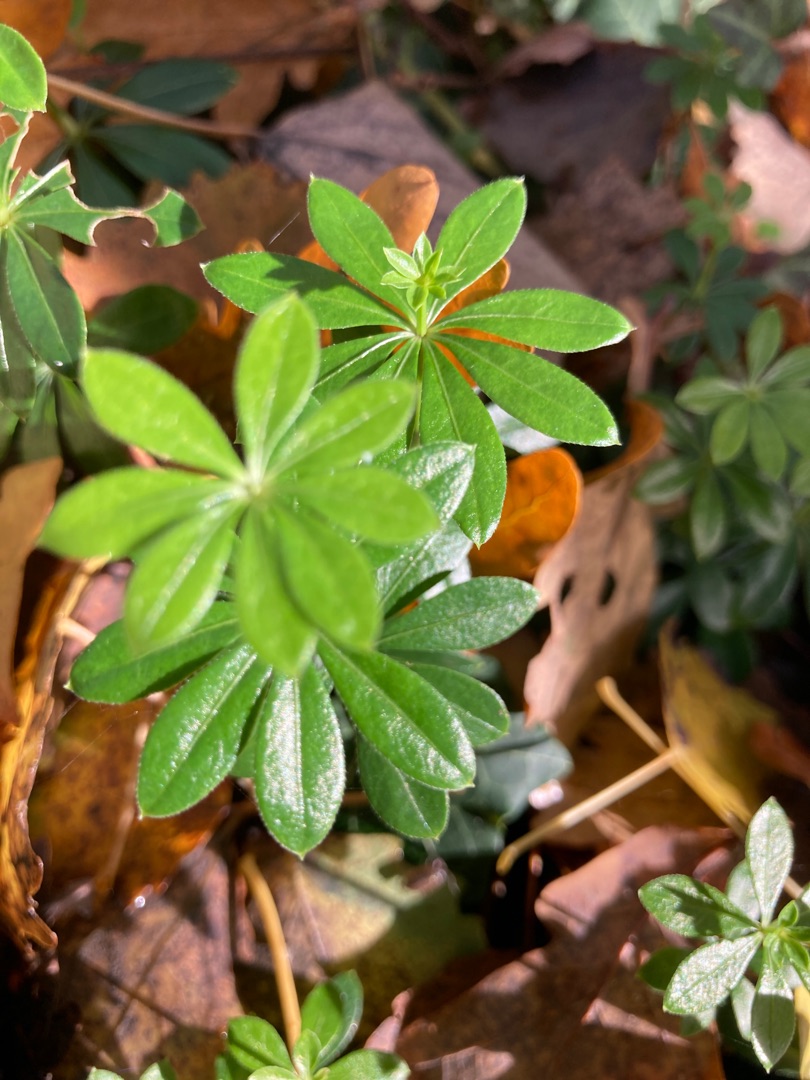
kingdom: Plantae
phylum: Tracheophyta
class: Magnoliopsida
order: Gentianales
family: Rubiaceae
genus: Galium
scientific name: Galium odoratum
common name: Skovmærke
